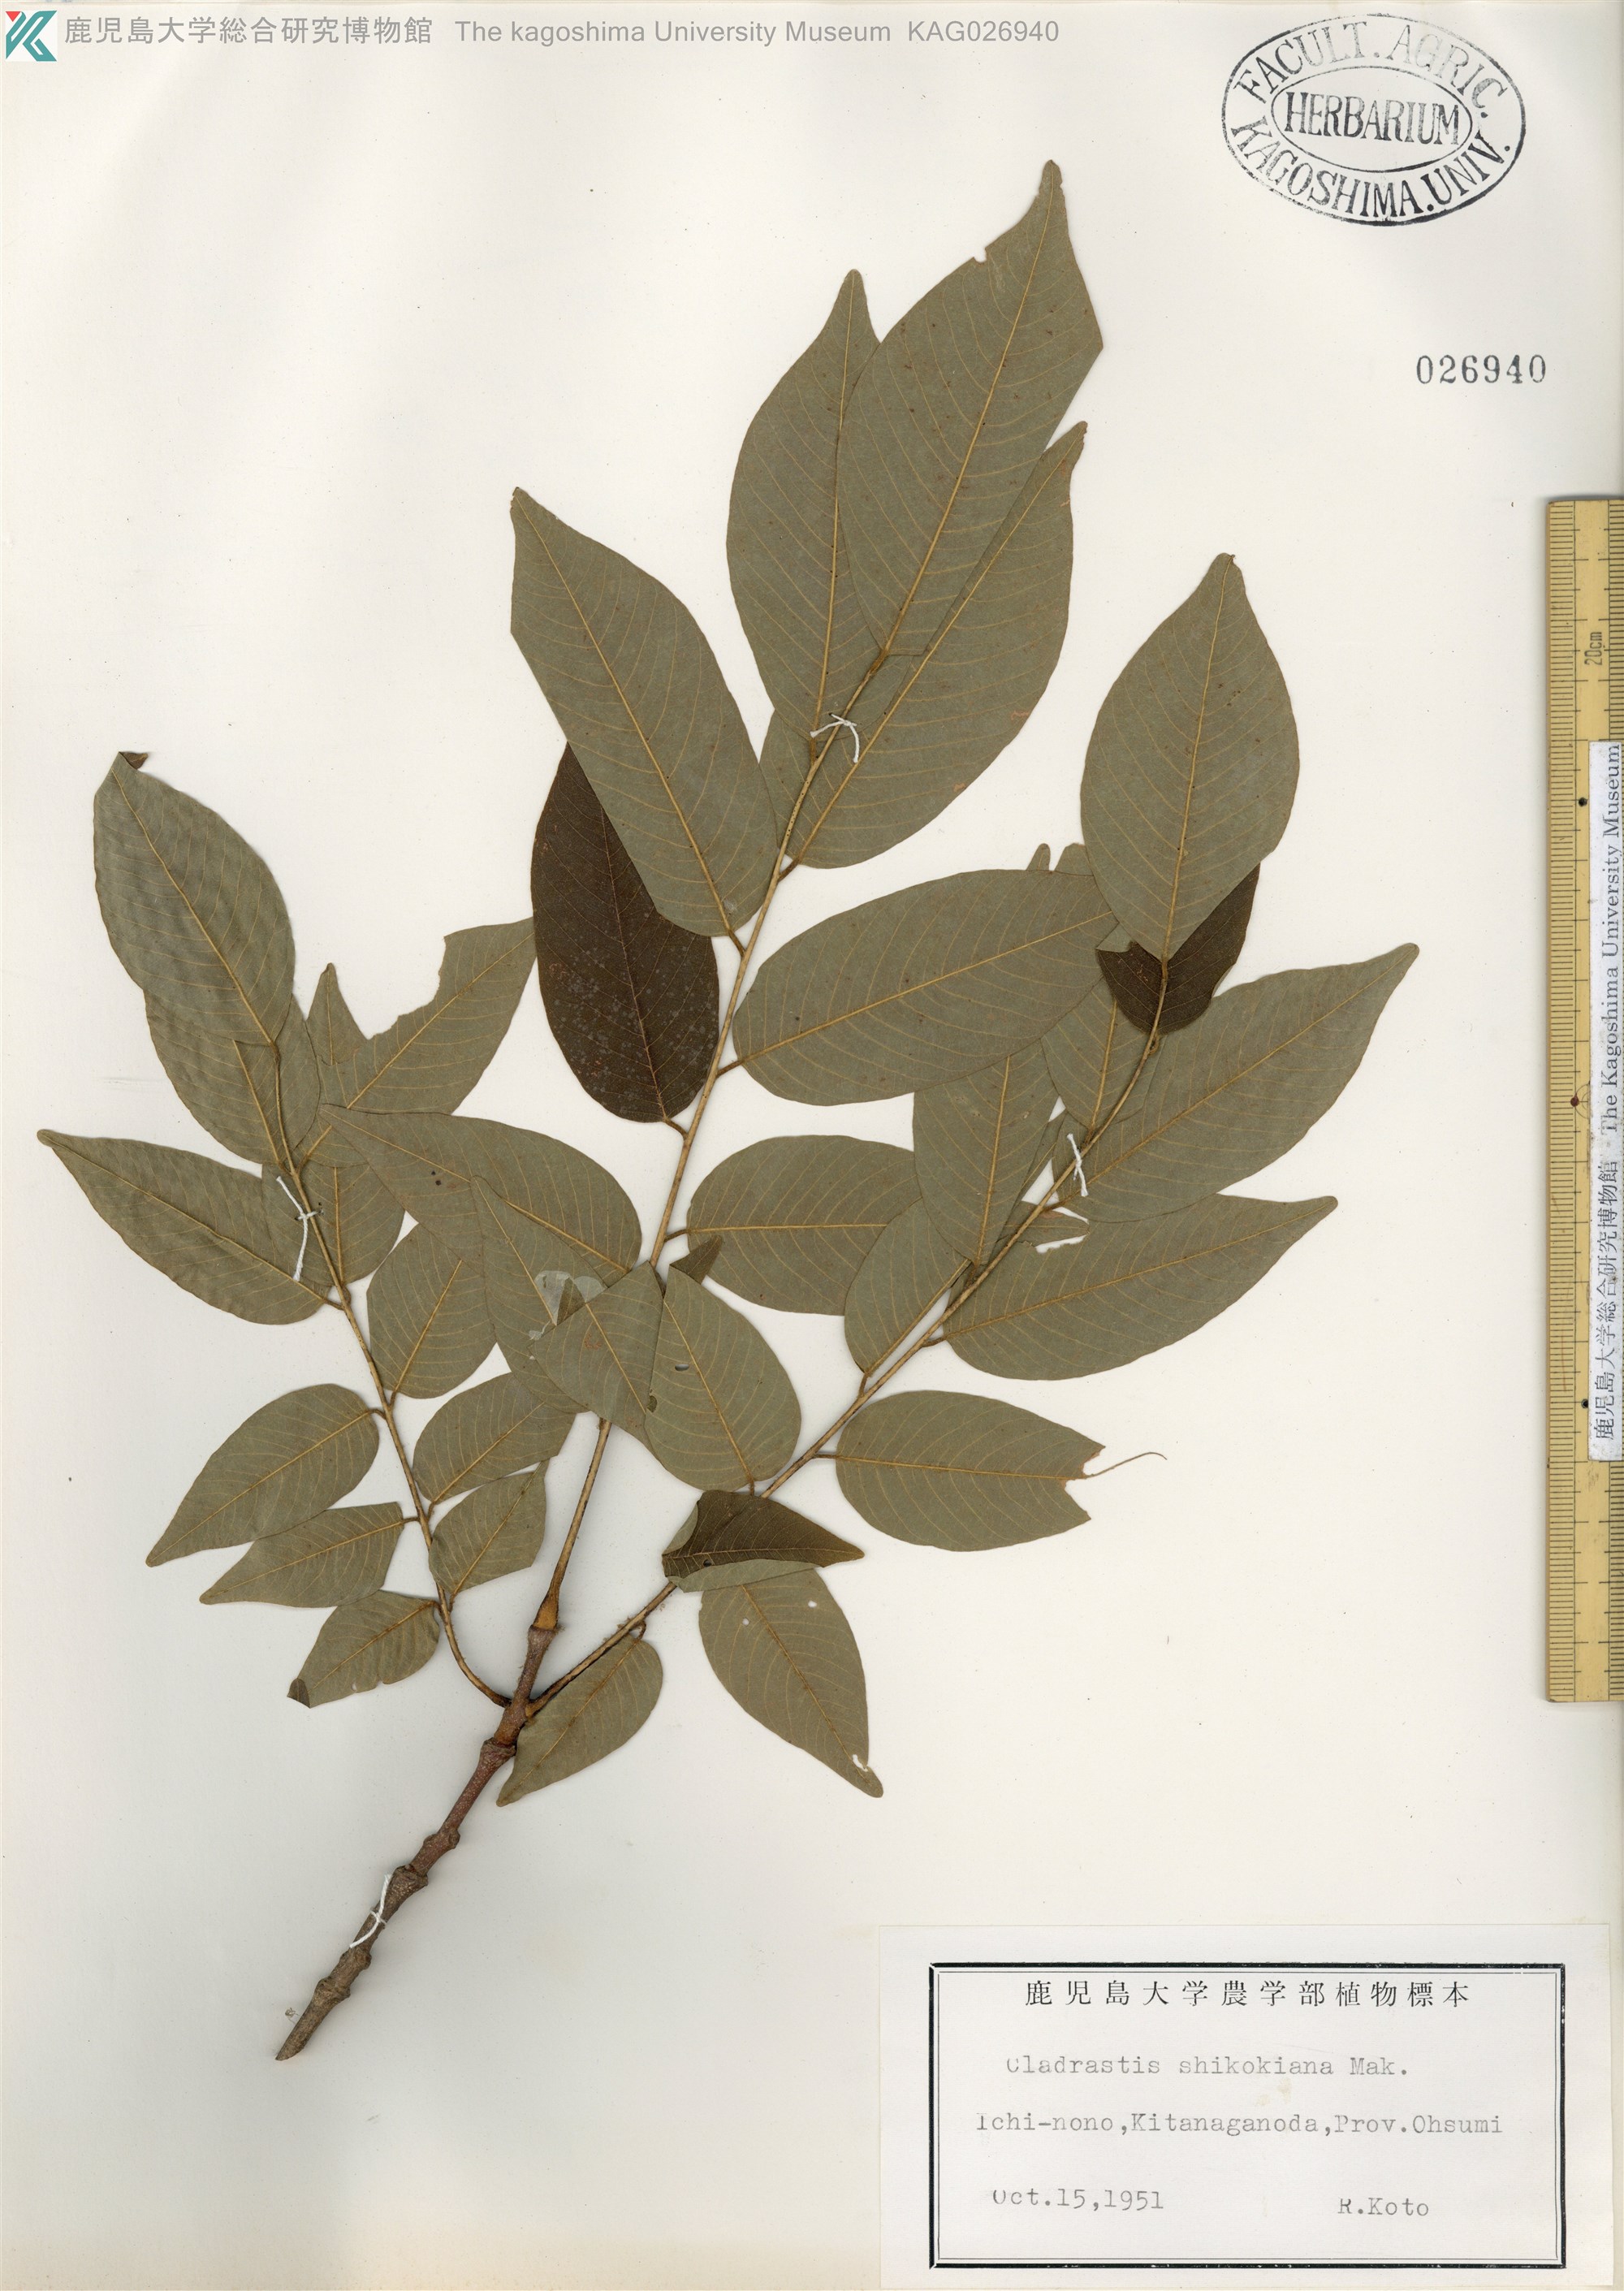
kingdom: Plantae
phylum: Tracheophyta
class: Magnoliopsida
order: Fabales
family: Fabaceae
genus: Cladrastis
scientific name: Cladrastis shikokiana
